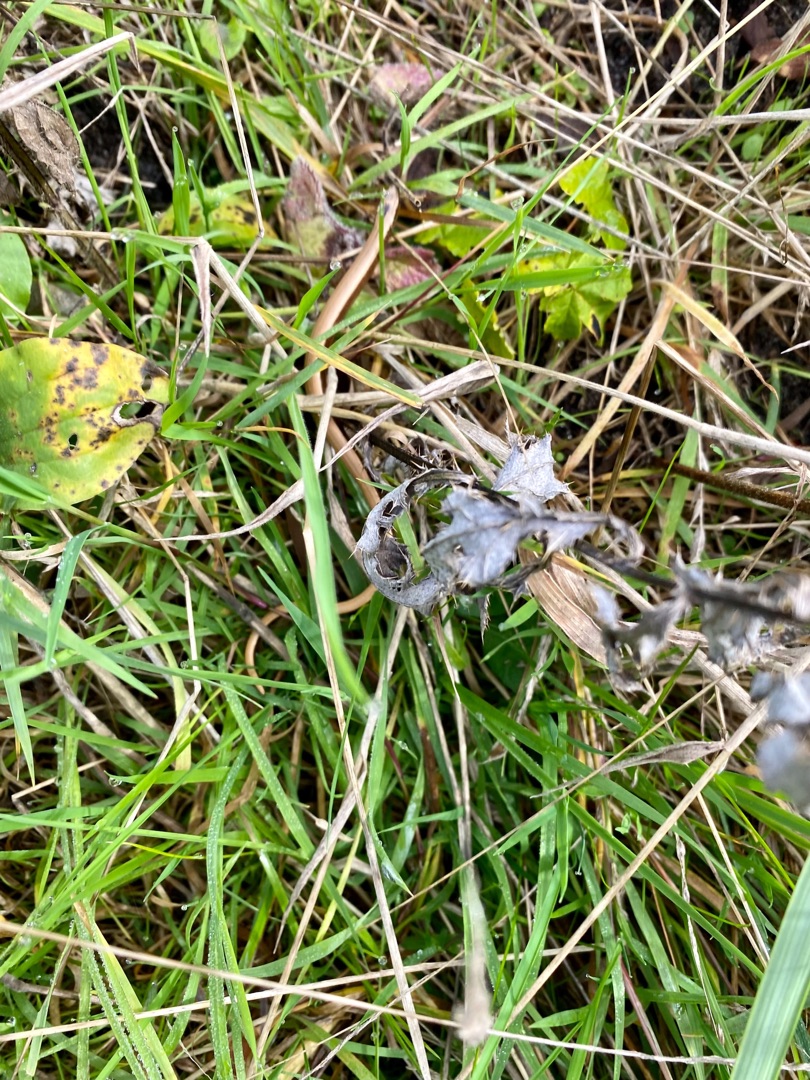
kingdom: Animalia
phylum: Chordata
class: Squamata
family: Anguidae
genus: Anguis
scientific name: Anguis fragilis
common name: Stålorm
